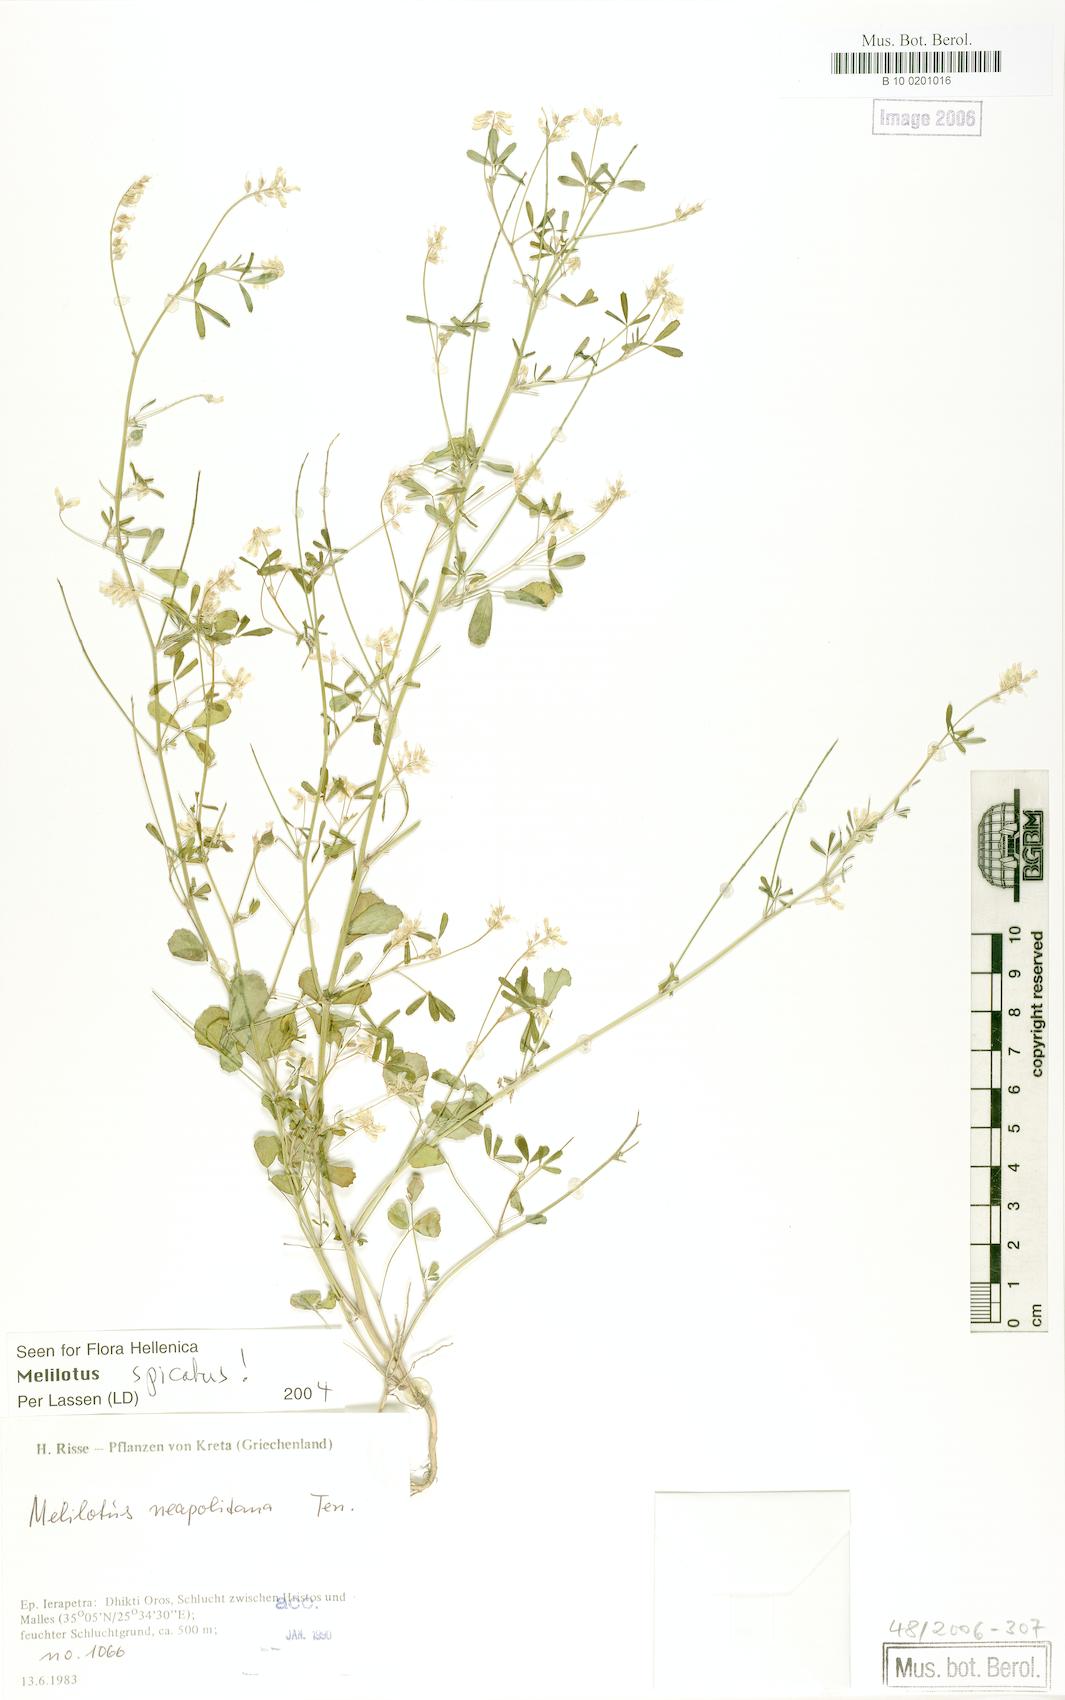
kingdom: Plantae
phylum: Tracheophyta
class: Magnoliopsida
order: Fabales
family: Fabaceae
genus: Melilotus
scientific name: Melilotus neapolitanus
